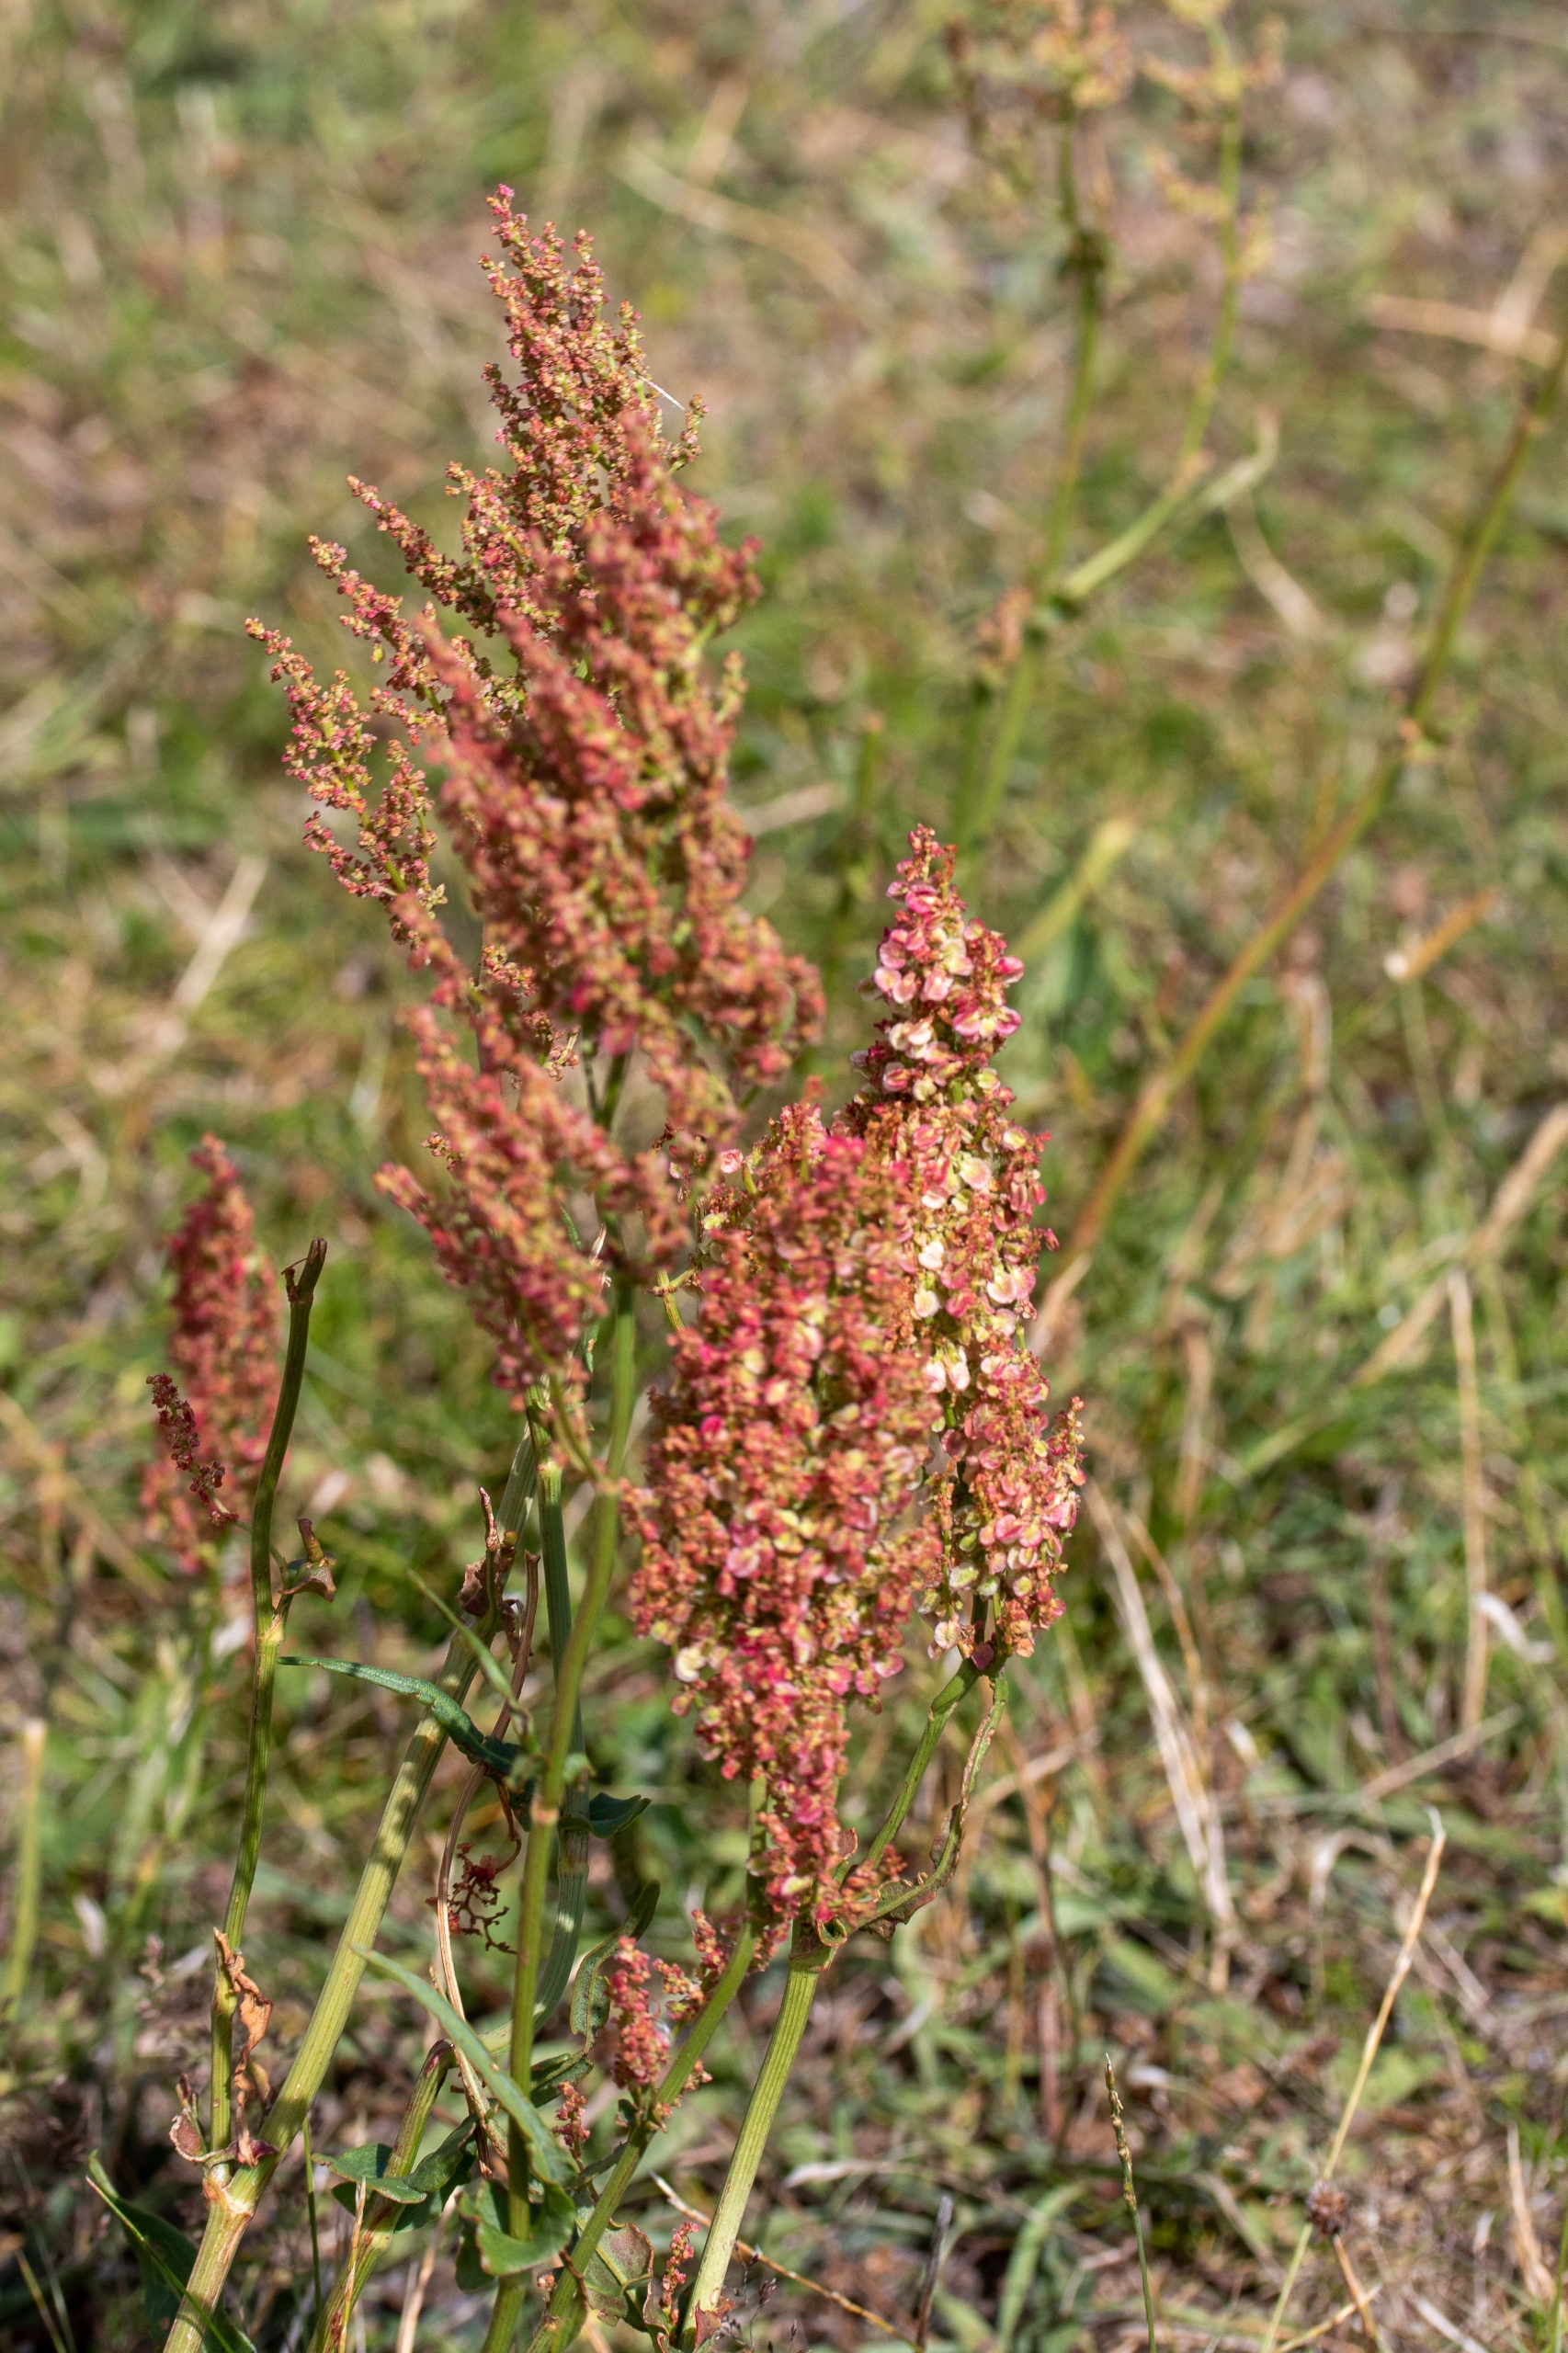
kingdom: Plantae
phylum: Tracheophyta
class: Magnoliopsida
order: Caryophyllales
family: Polygonaceae
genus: Rumex
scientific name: Rumex thyrsiflorus
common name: Dusk-syre
